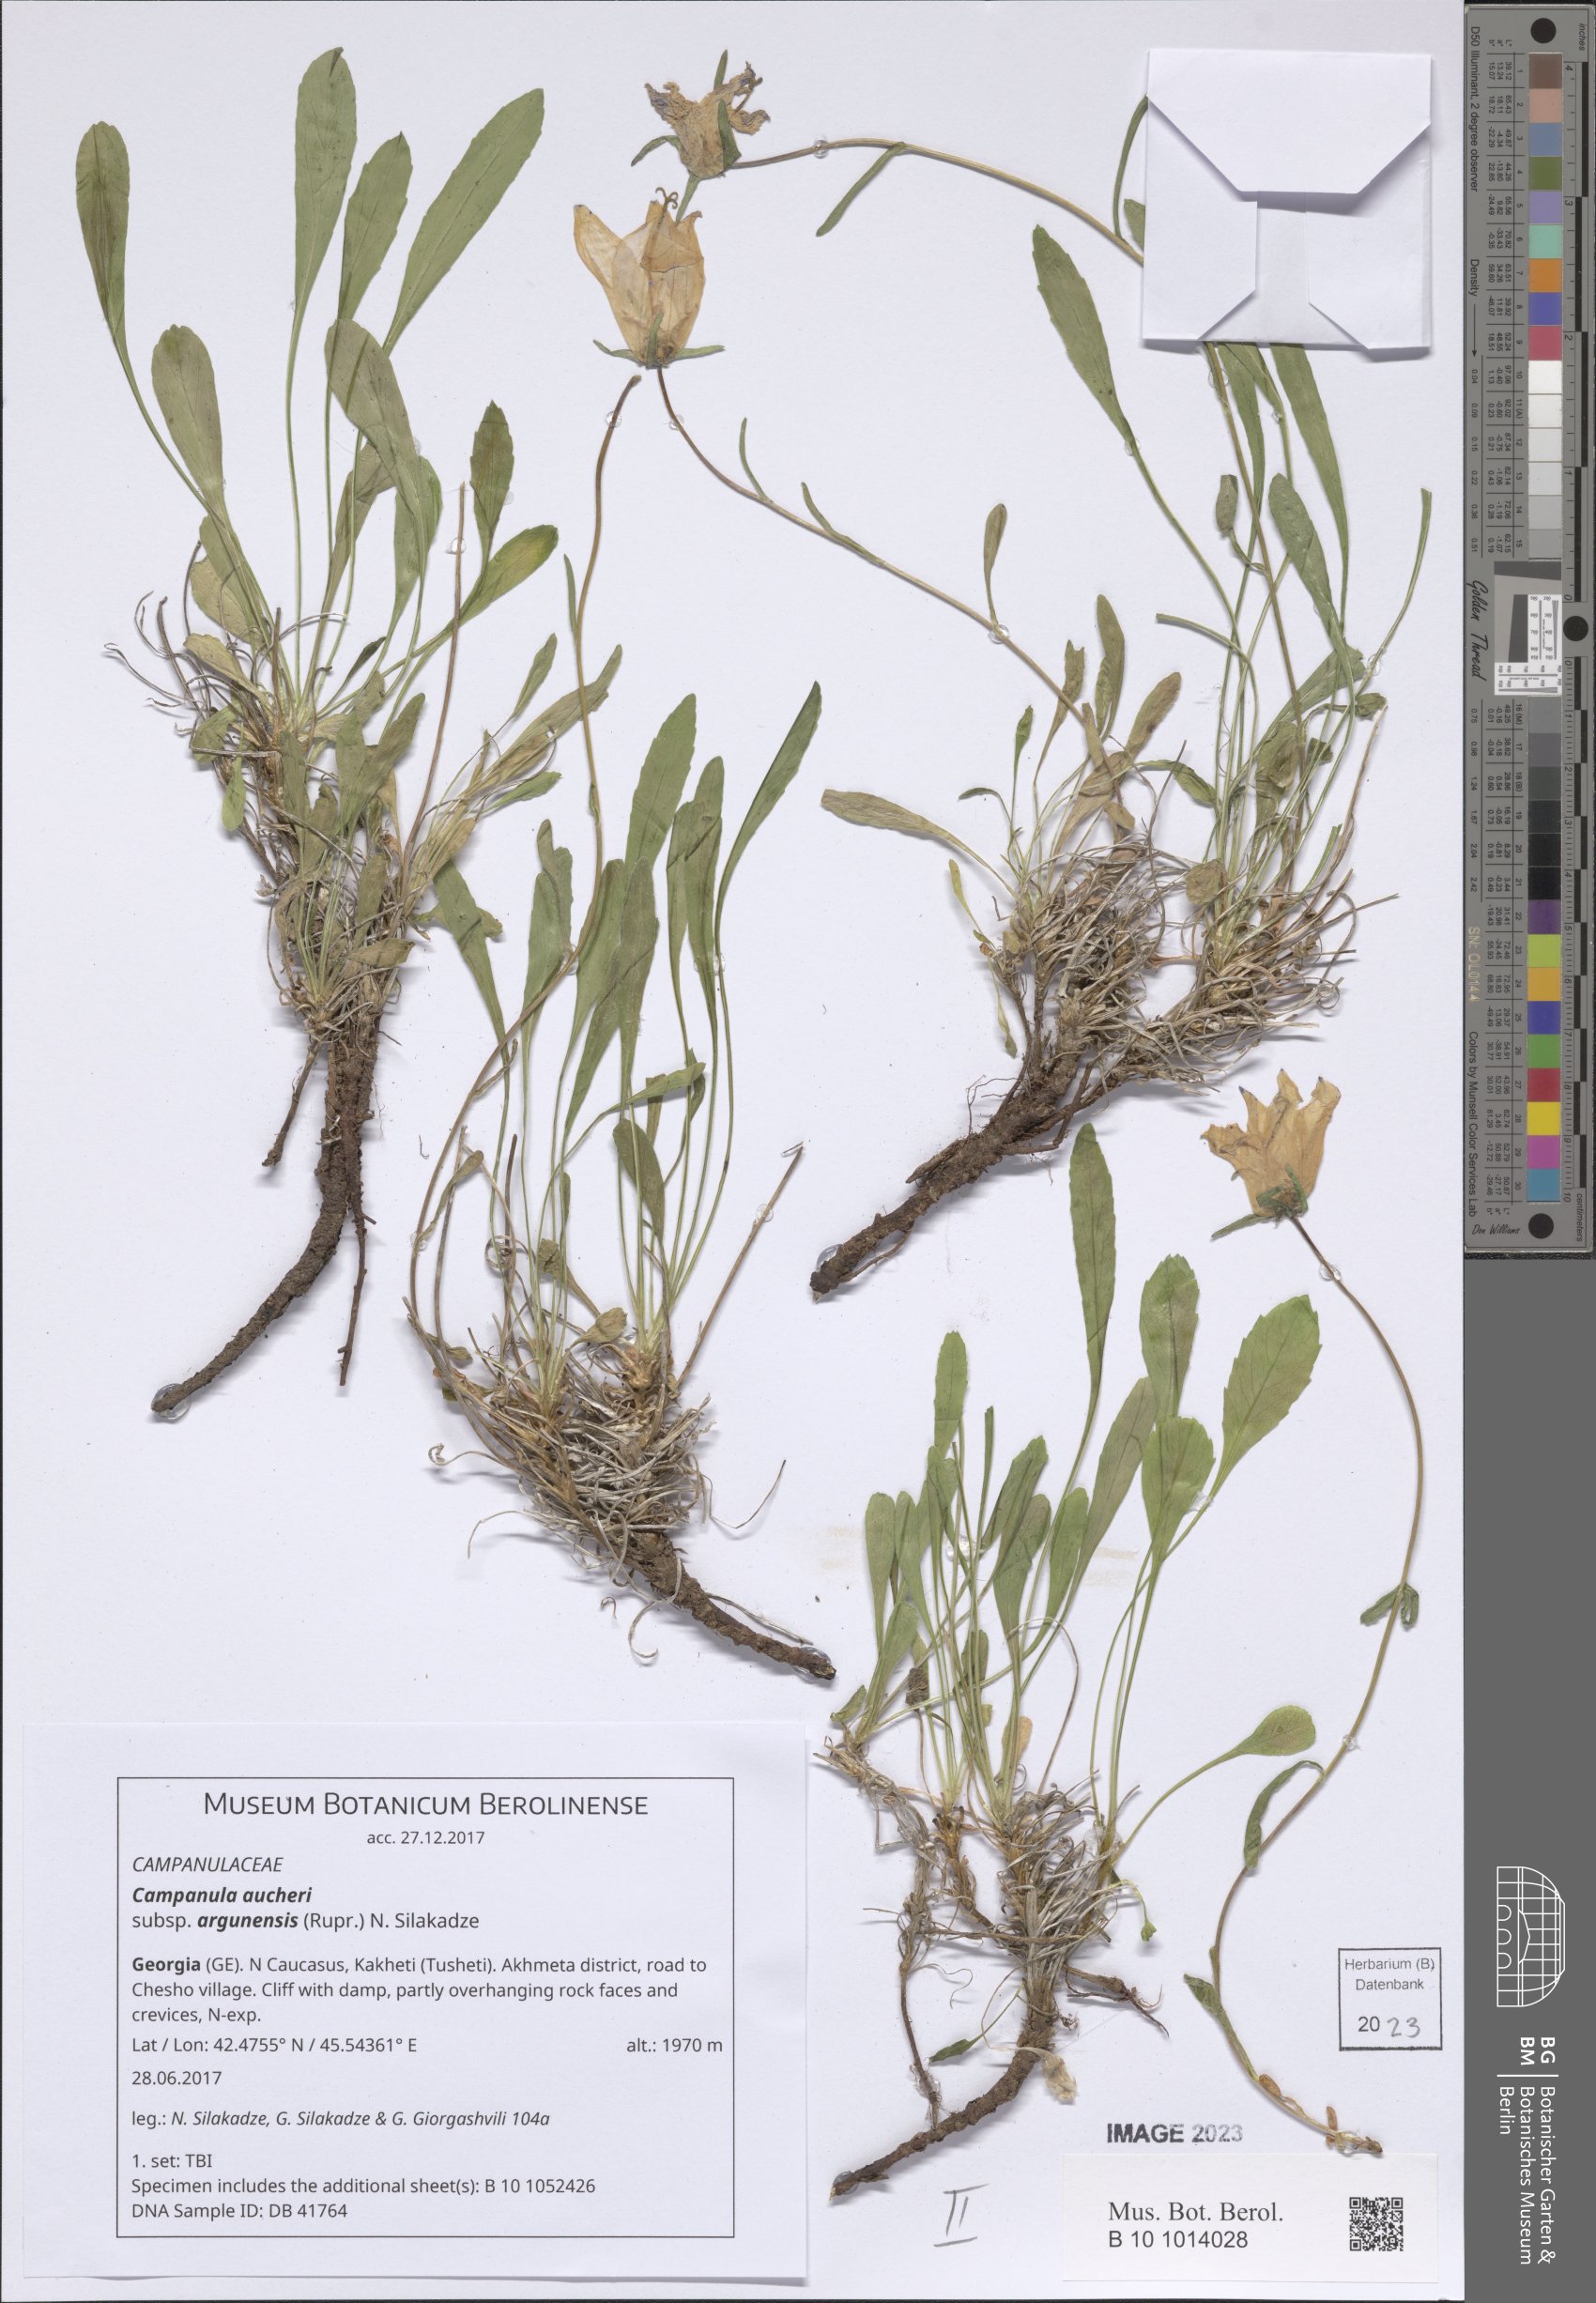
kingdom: Plantae
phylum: Tracheophyta
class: Magnoliopsida
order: Asterales
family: Campanulaceae
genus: Campanula
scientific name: Campanula saxifraga
